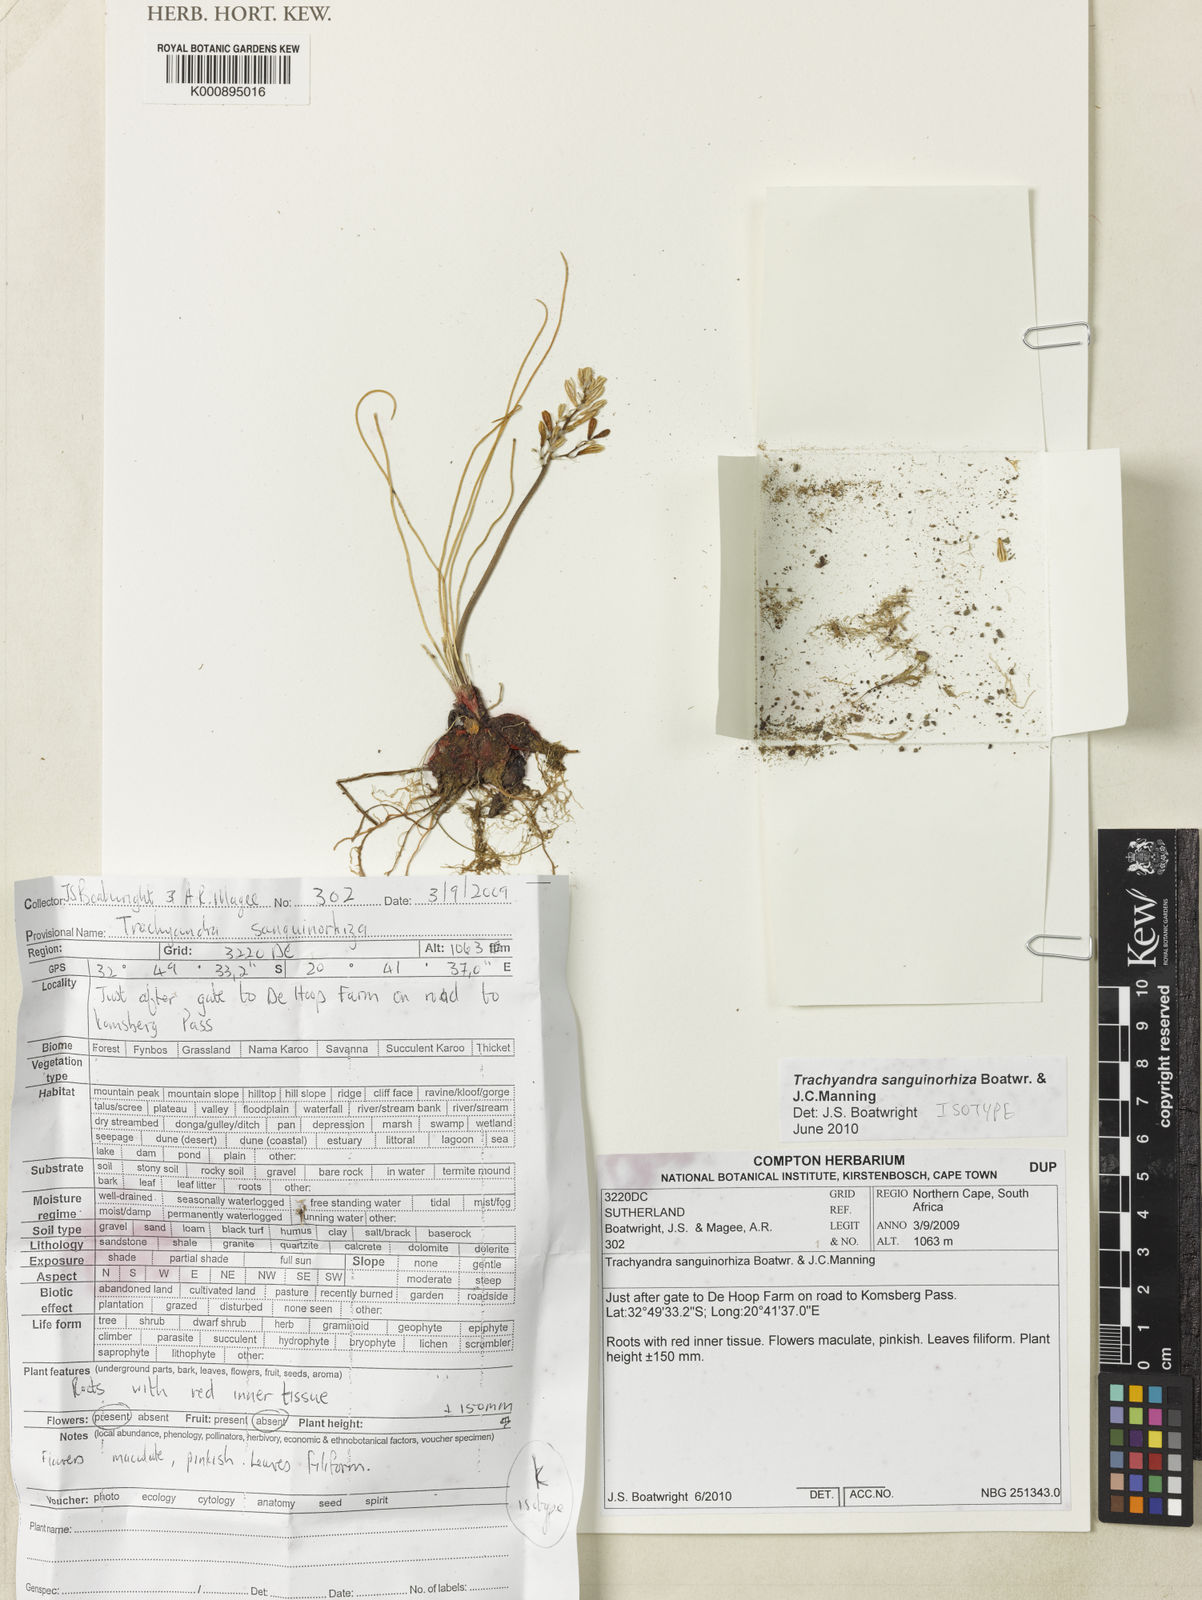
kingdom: Plantae
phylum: Tracheophyta
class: Liliopsida
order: Asparagales
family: Asphodelaceae
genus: Trachyandra
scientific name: Trachyandra sanguinorhiza
